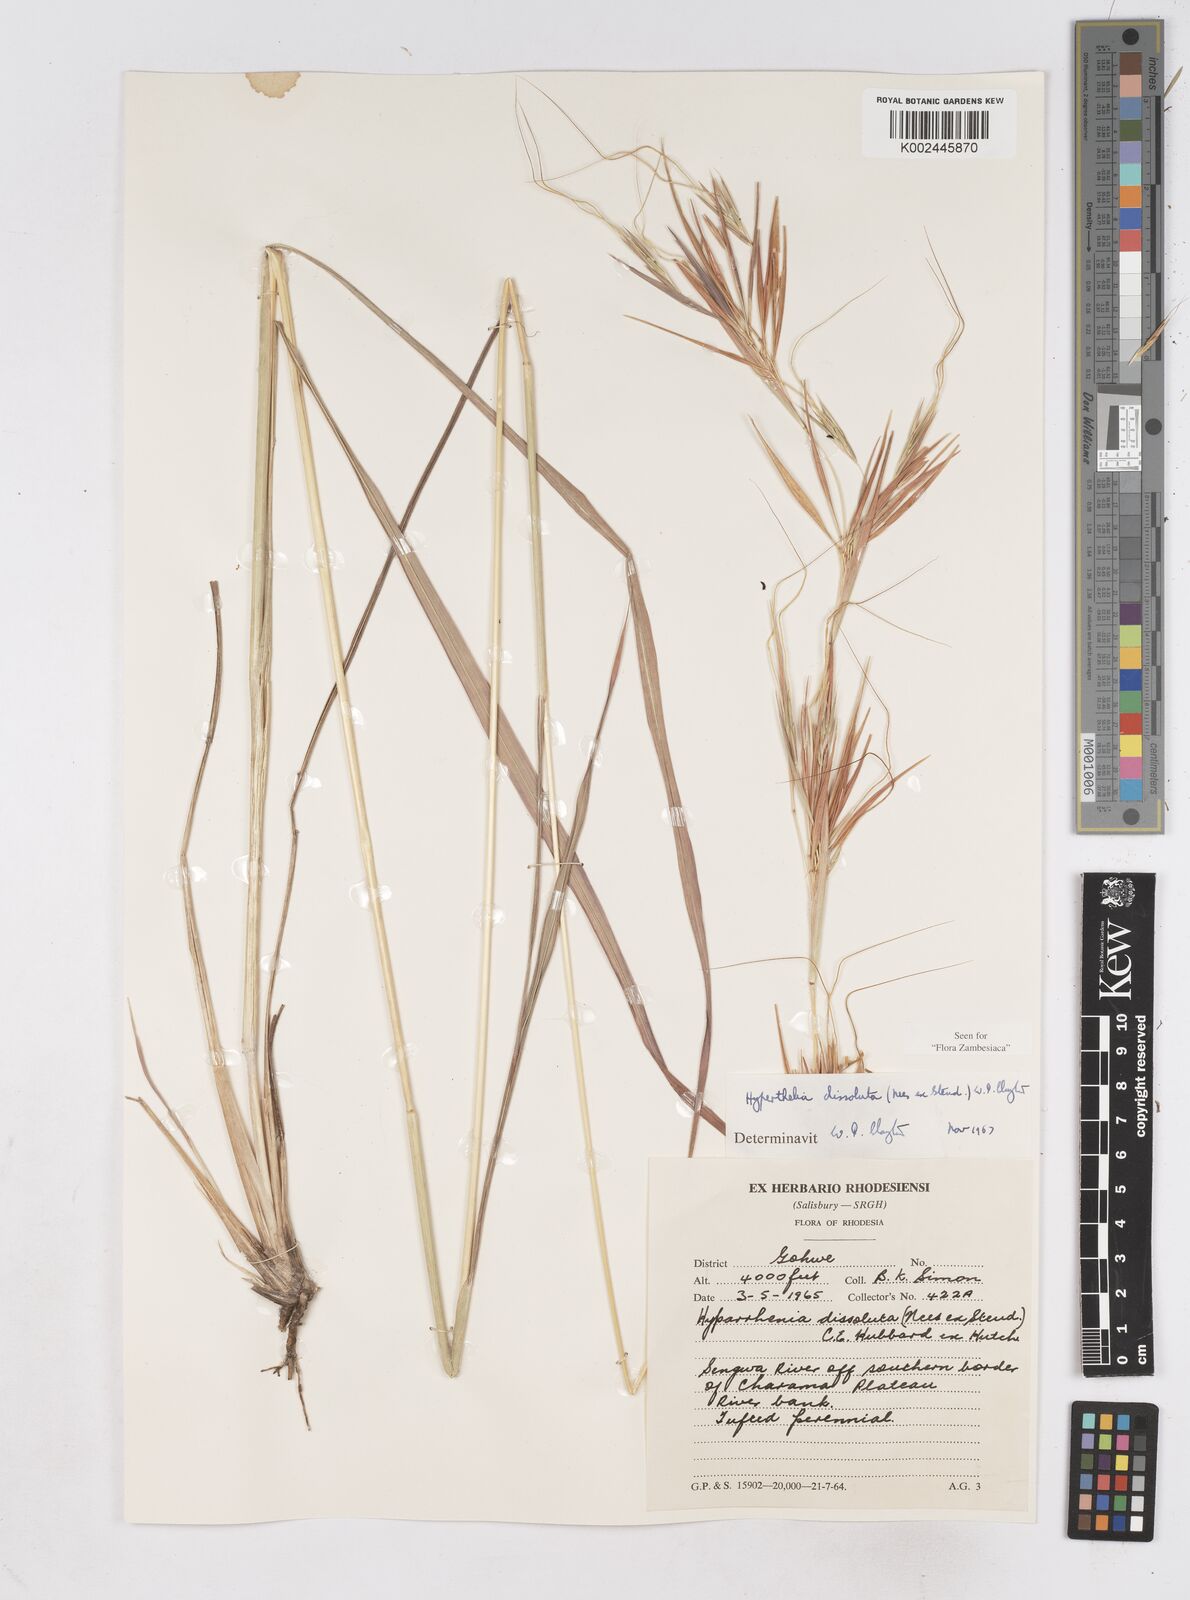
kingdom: Plantae
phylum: Tracheophyta
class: Liliopsida
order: Poales
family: Poaceae
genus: Hyperthelia
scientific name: Hyperthelia dissoluta
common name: Yellow thatching grass
